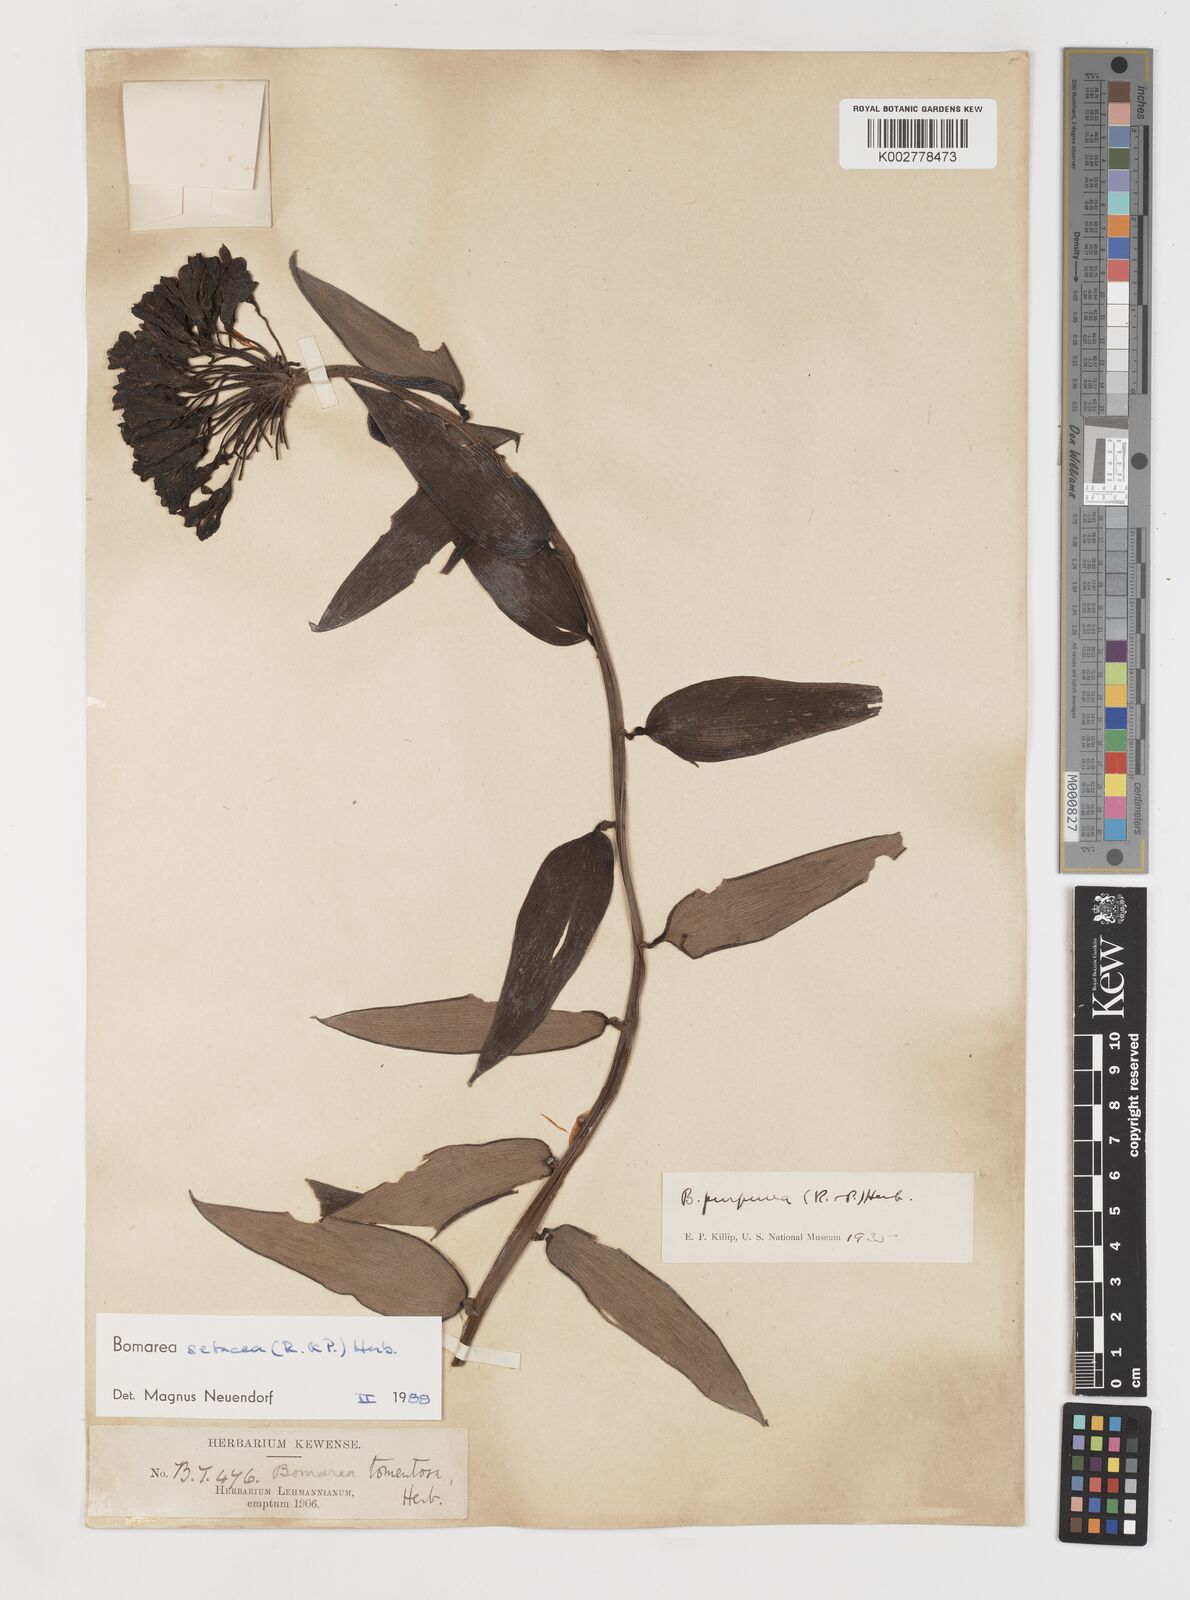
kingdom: Plantae
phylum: Tracheophyta
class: Liliopsida
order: Liliales
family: Alstroemeriaceae
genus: Bomarea
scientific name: Bomarea setacea
